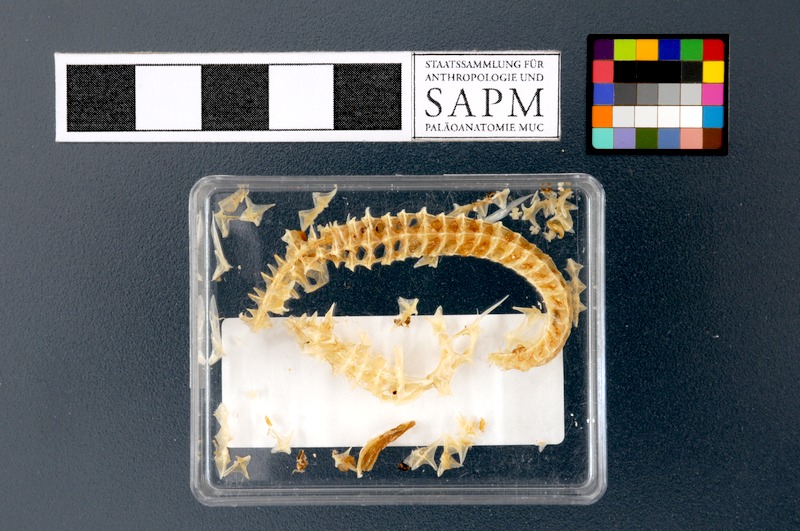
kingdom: Animalia
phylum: Chordata
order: Syngnathiformes
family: Syngnathidae
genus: Hippocampus
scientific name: Hippocampus guttulatus
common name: Long-snouted seahorse
